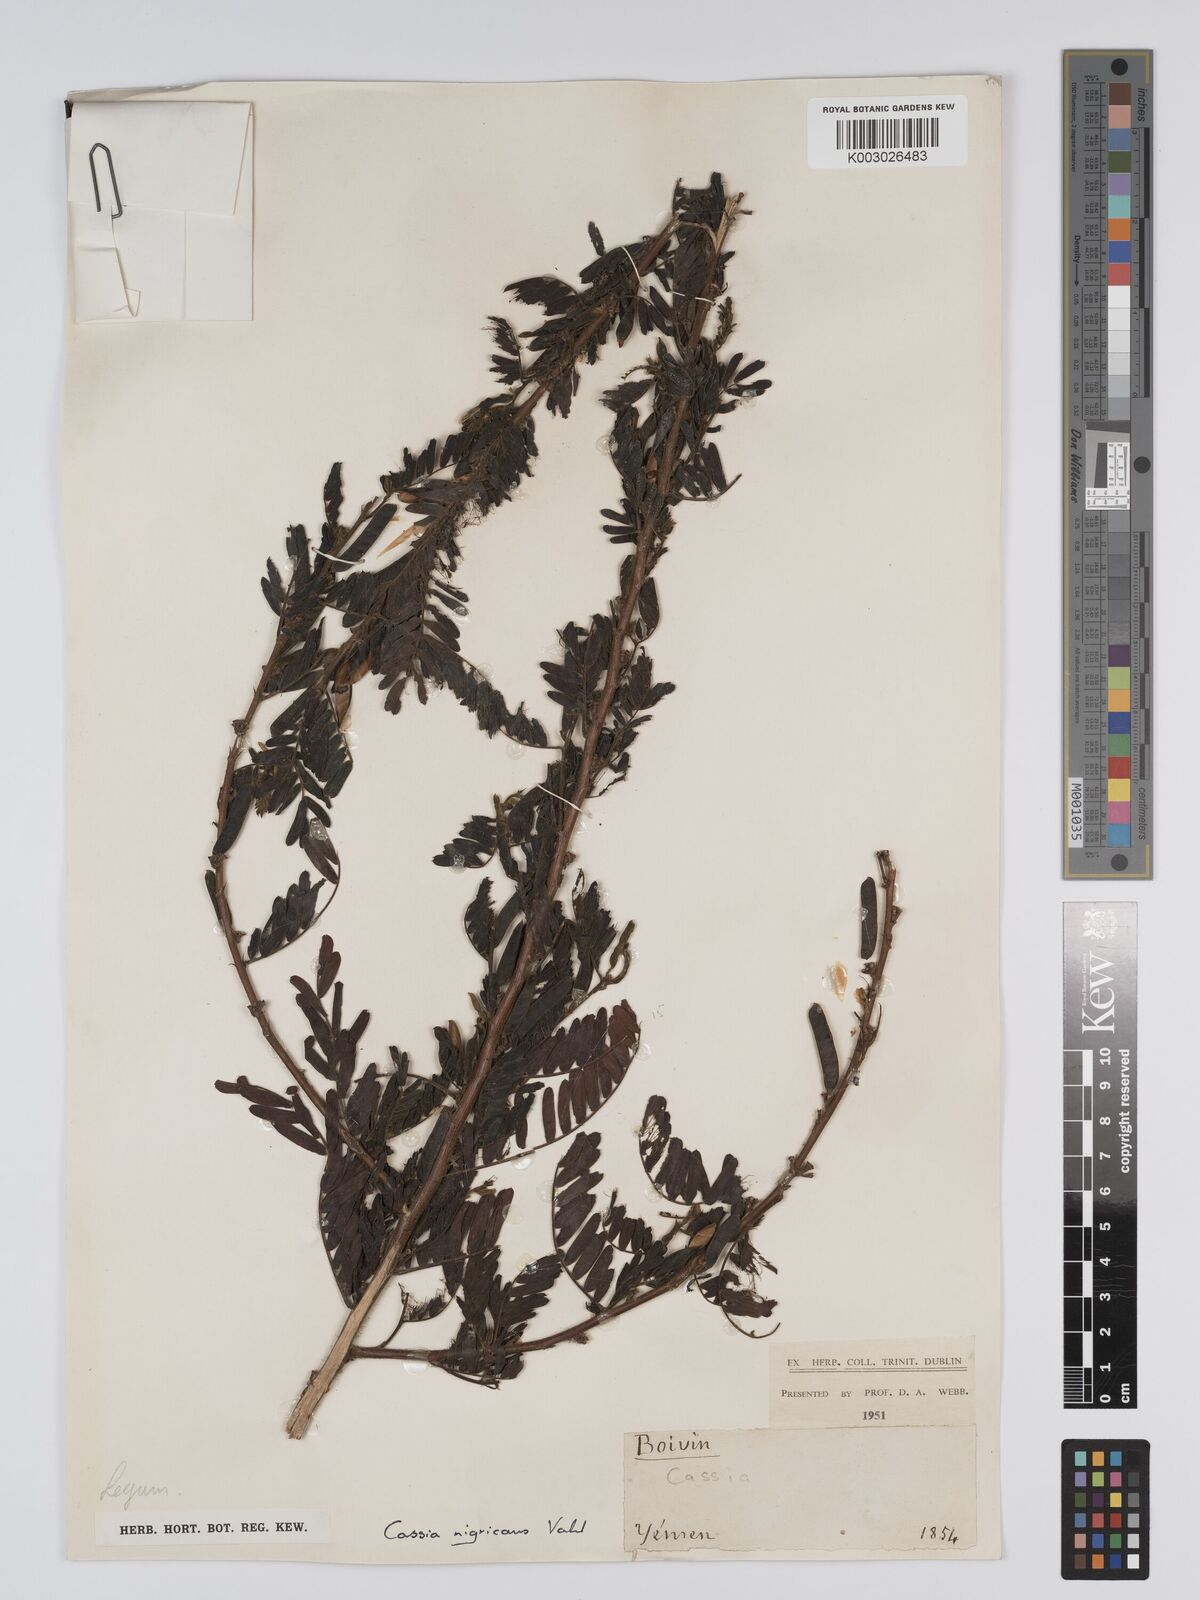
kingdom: Plantae
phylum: Tracheophyta
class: Magnoliopsida
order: Fabales
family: Fabaceae
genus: Chamaecrista
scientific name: Chamaecrista nigricans
